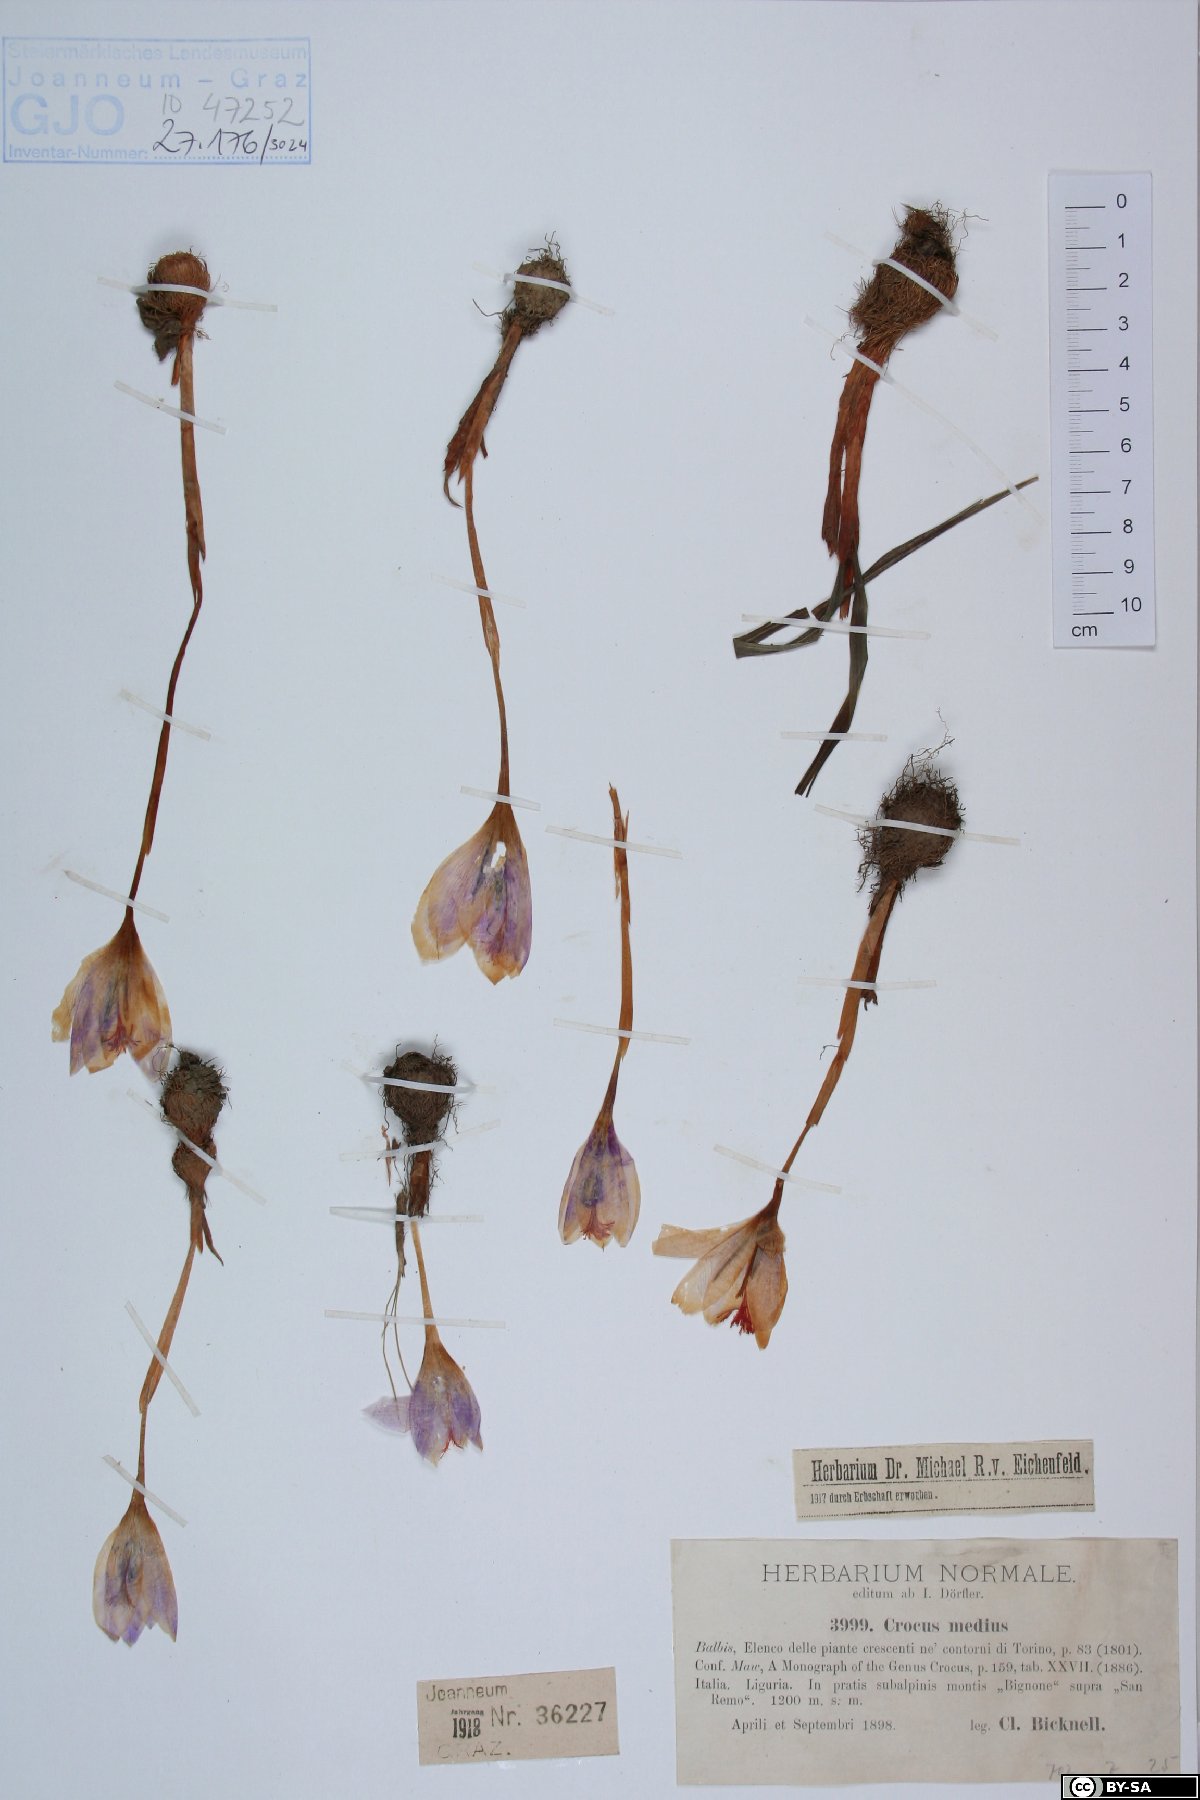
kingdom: Plantae
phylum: Tracheophyta
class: Liliopsida
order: Asparagales
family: Iridaceae
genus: Crocus
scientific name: Crocus nudiflorus
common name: Autumn crocus
